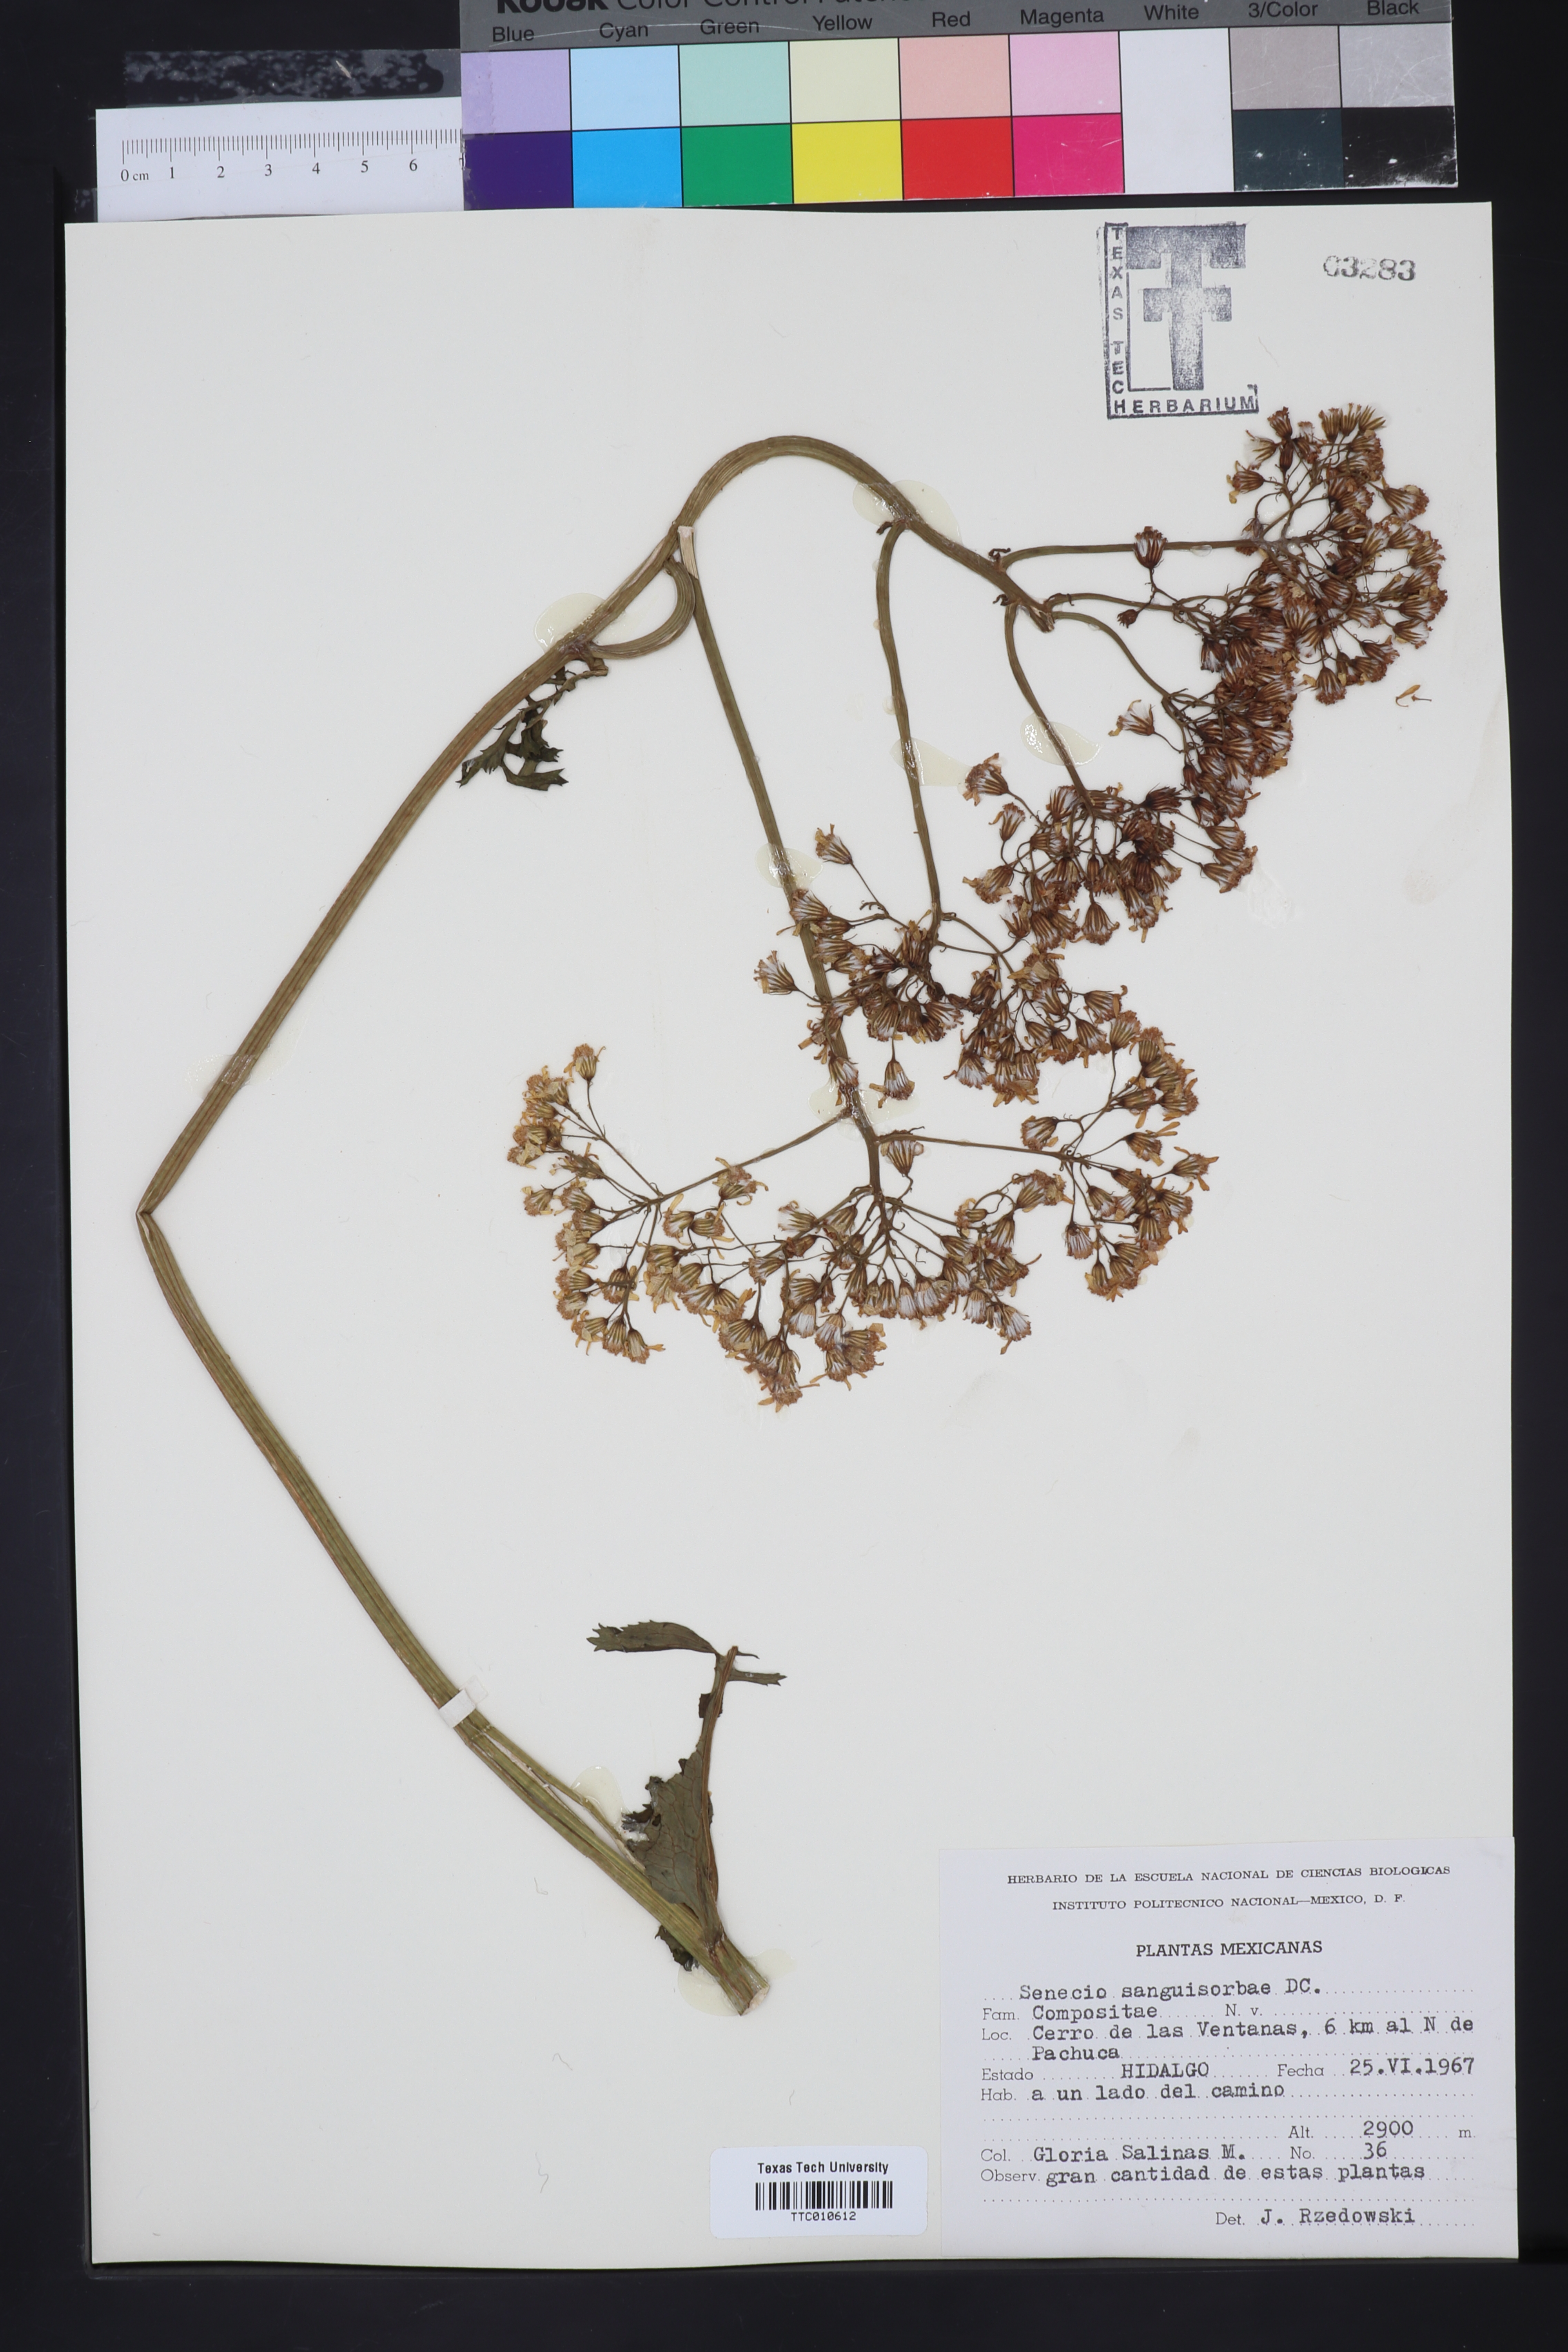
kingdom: Plantae
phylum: Tracheophyta
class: Magnoliopsida
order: Asterales
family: Asteraceae
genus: Packera
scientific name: Packera sanguisorbae
